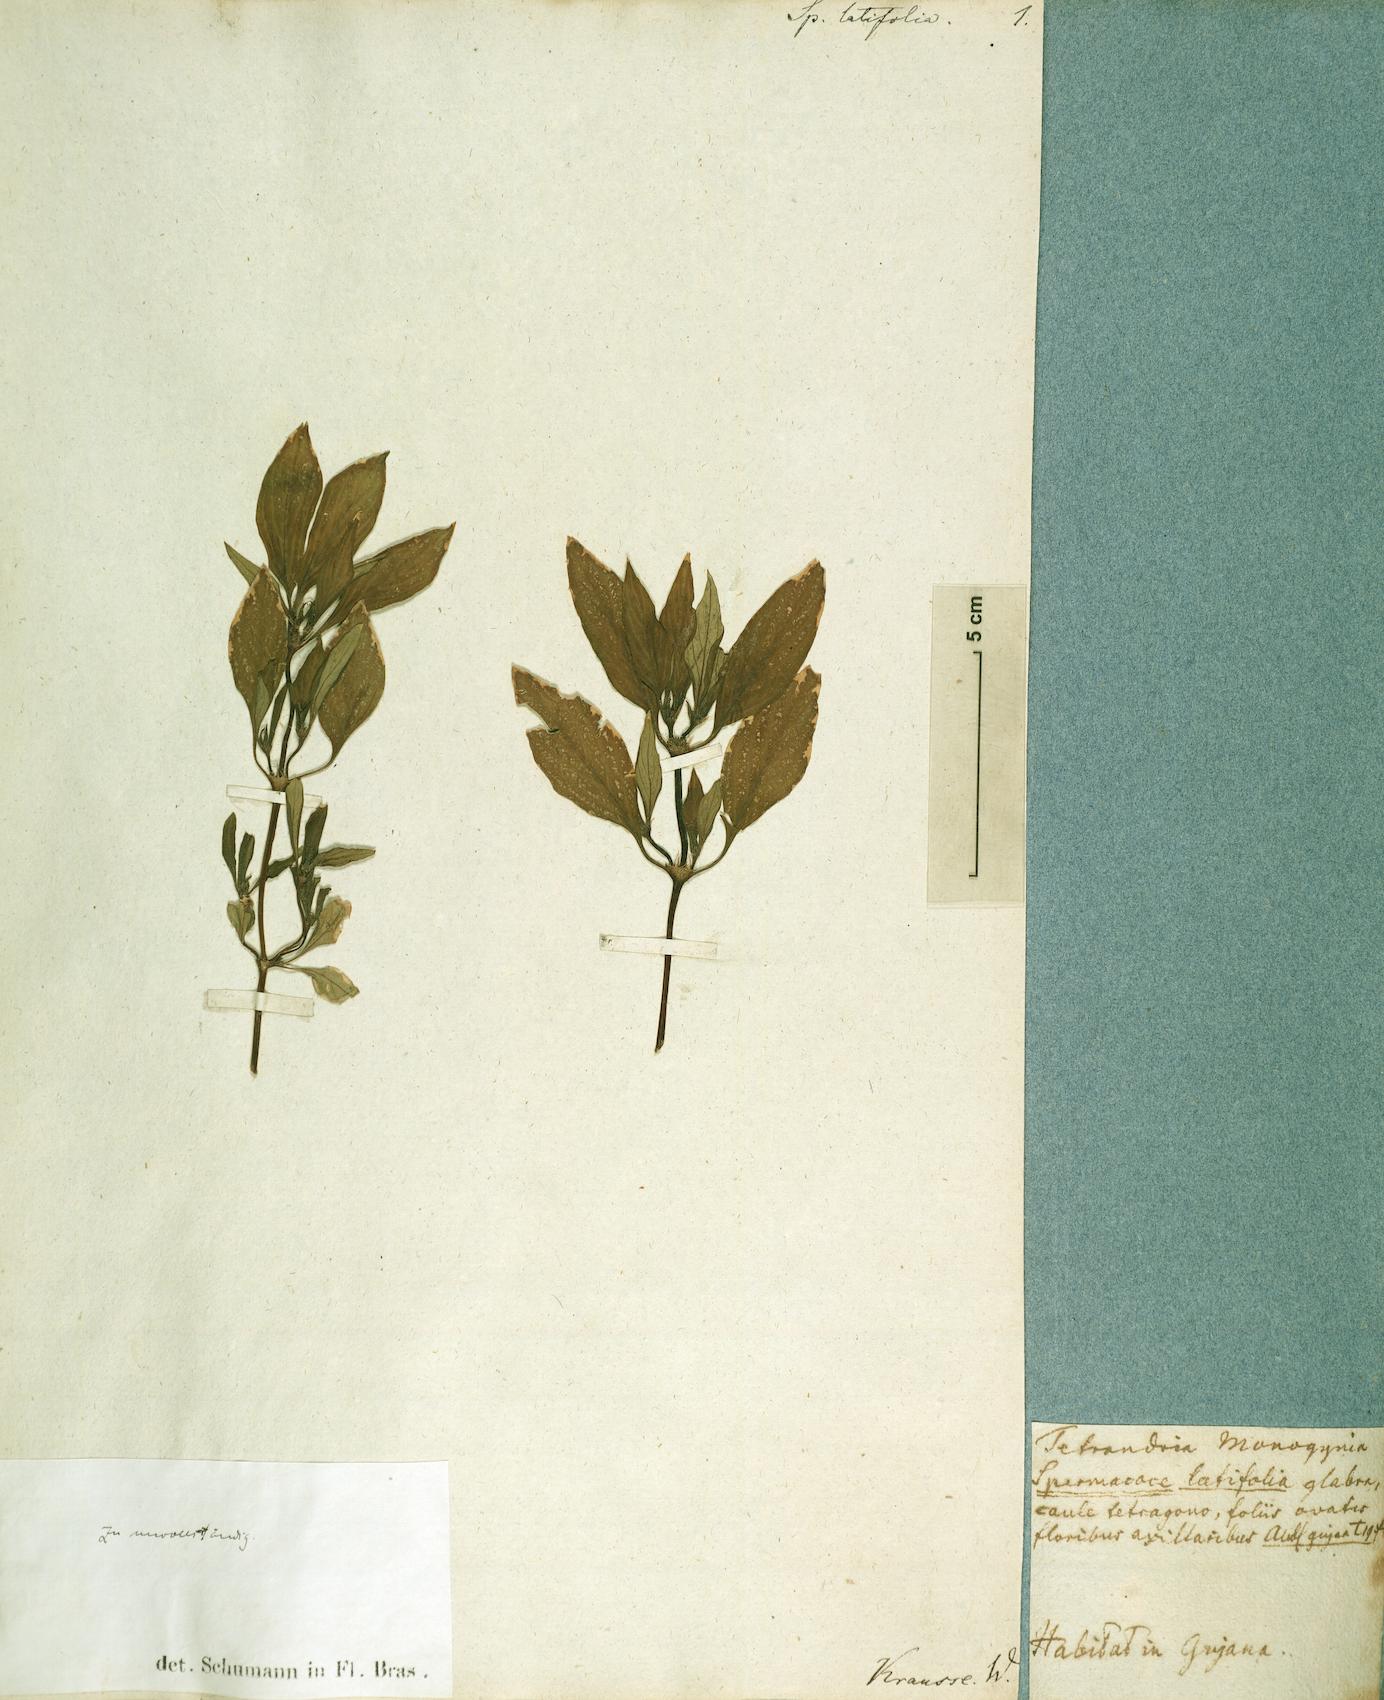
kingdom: Plantae
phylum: Tracheophyta
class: Magnoliopsida
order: Gentianales
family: Rubiaceae
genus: Spermacoce
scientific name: Spermacoce latifolia
